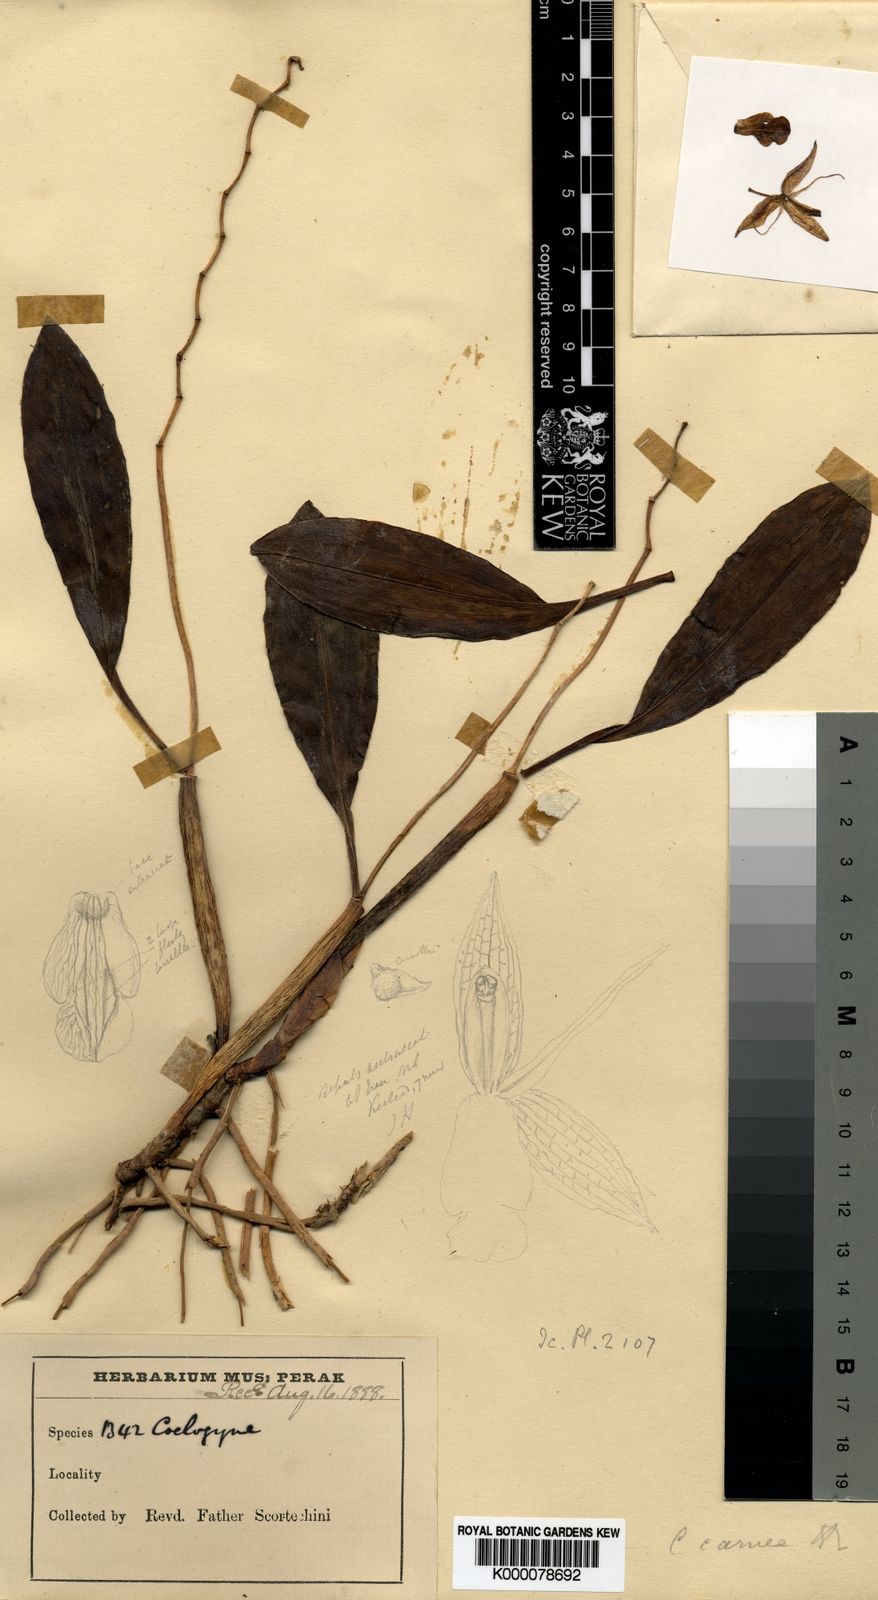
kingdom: Plantae
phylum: Tracheophyta
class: Liliopsida
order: Asparagales
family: Orchidaceae
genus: Coelogyne
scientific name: Coelogyne radicosa
